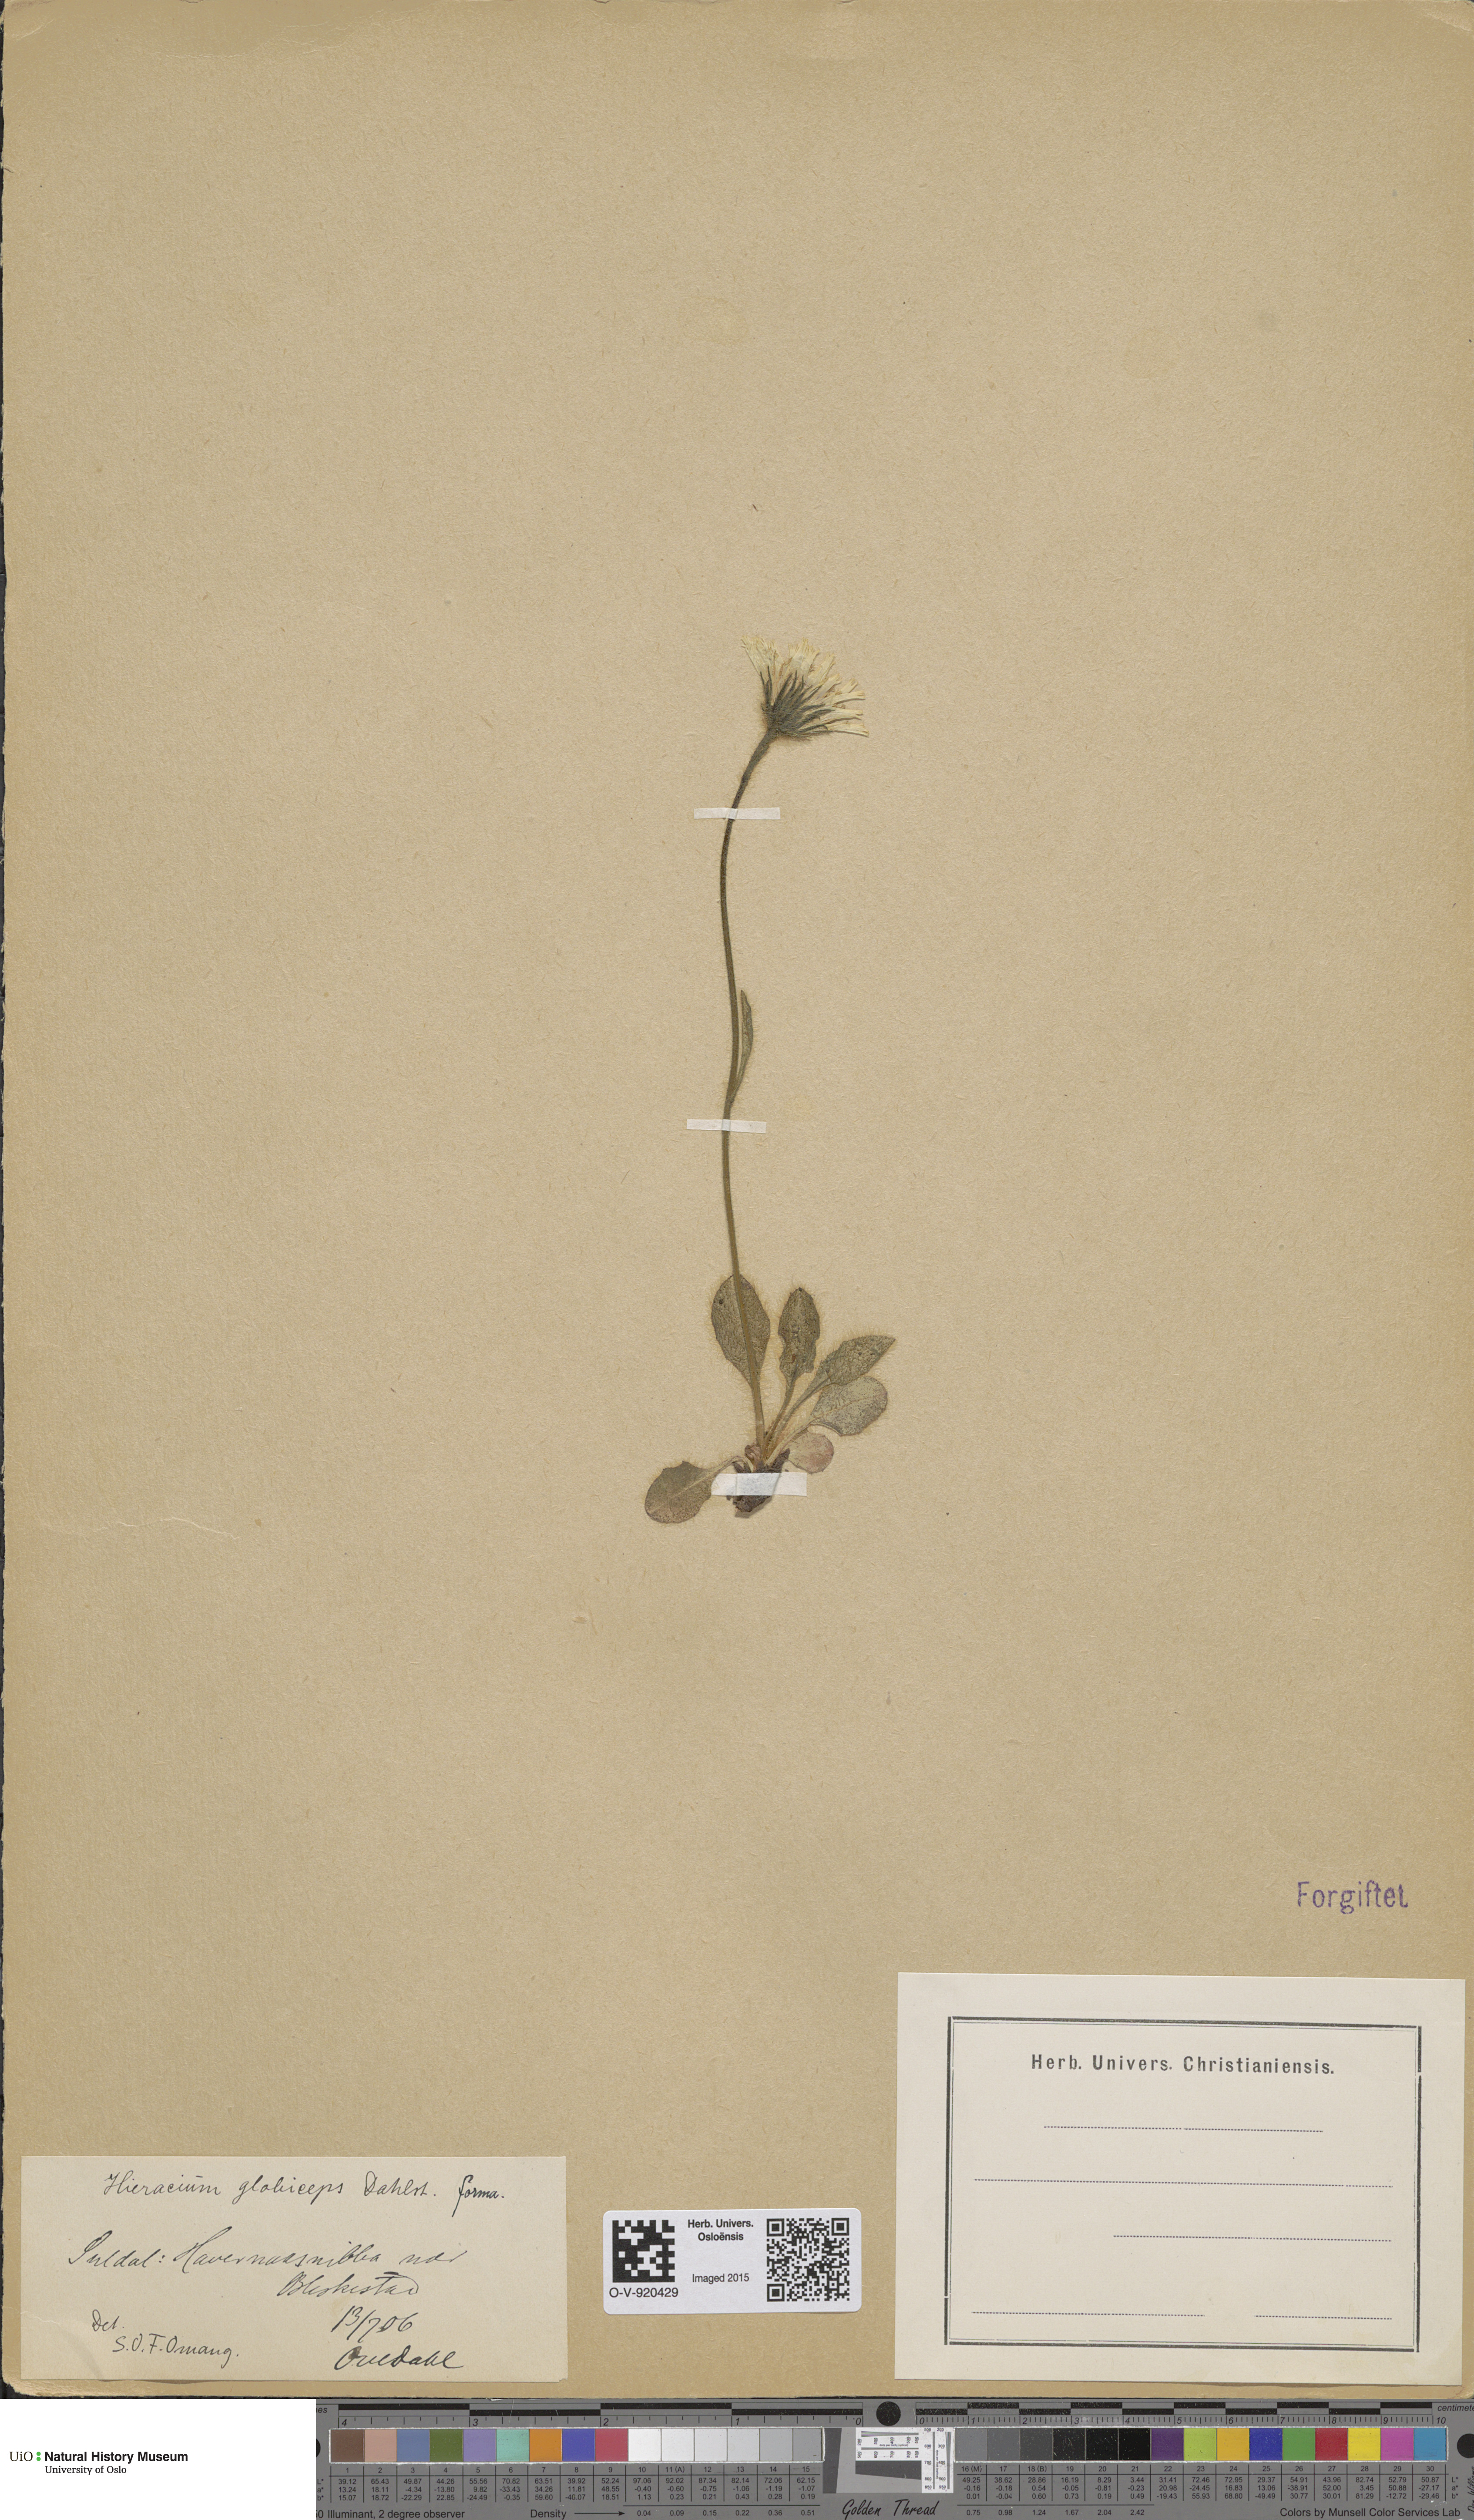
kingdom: Plantae
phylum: Tracheophyta
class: Magnoliopsida
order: Asterales
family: Asteraceae
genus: Hieracium
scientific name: Hieracium alpinum
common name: Alpine hawkweed
